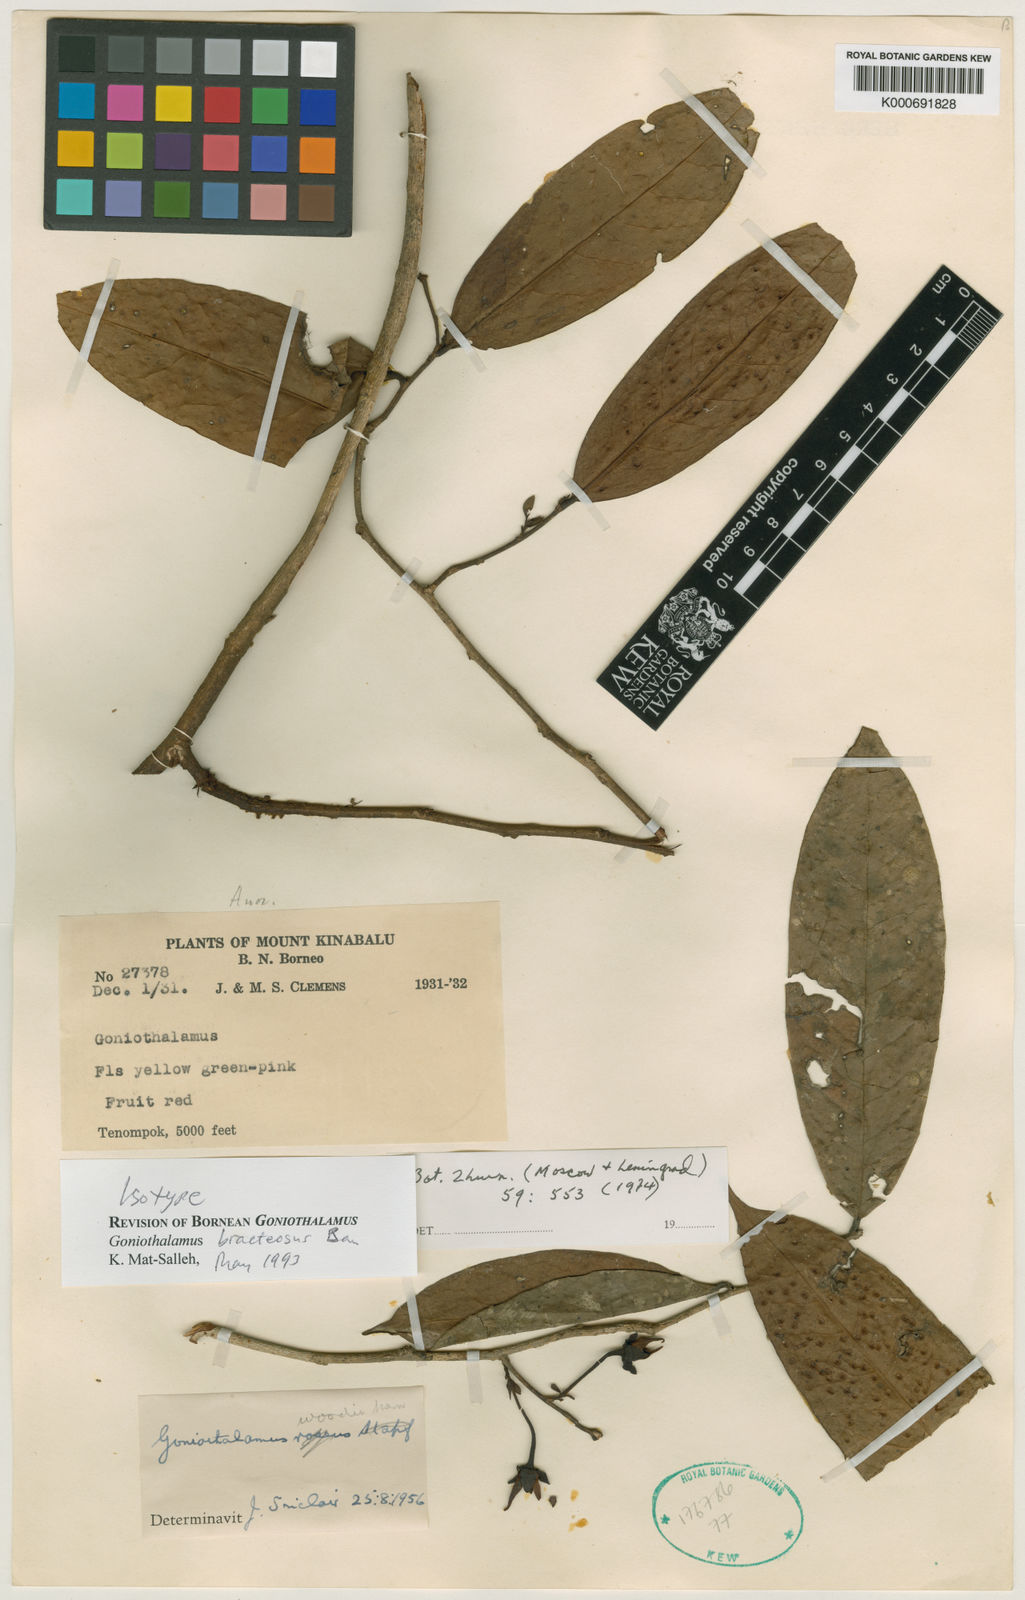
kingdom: Plantae
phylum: Tracheophyta
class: Magnoliopsida
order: Magnoliales
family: Annonaceae
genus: Goniothalamus
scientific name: Goniothalamus
